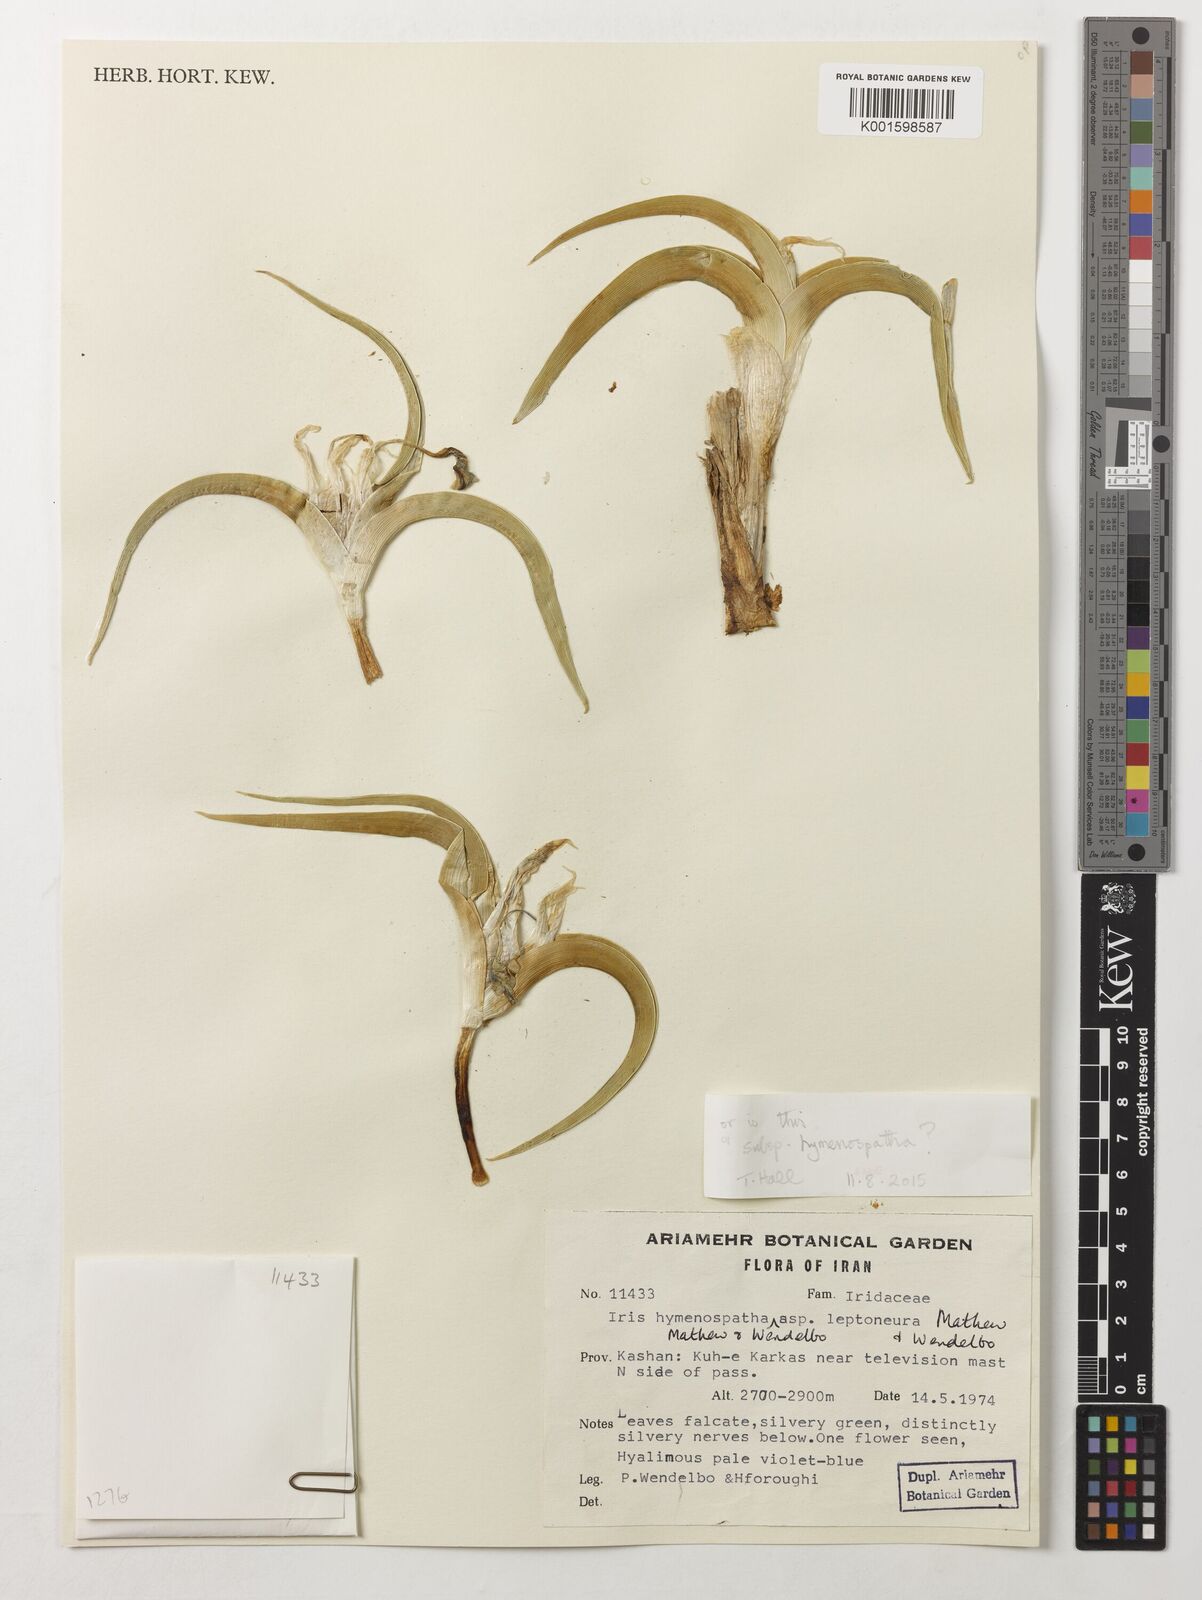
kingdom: Plantae
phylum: Tracheophyta
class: Liliopsida
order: Asparagales
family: Iridaceae
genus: Iris
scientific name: Iris hymenospatha
